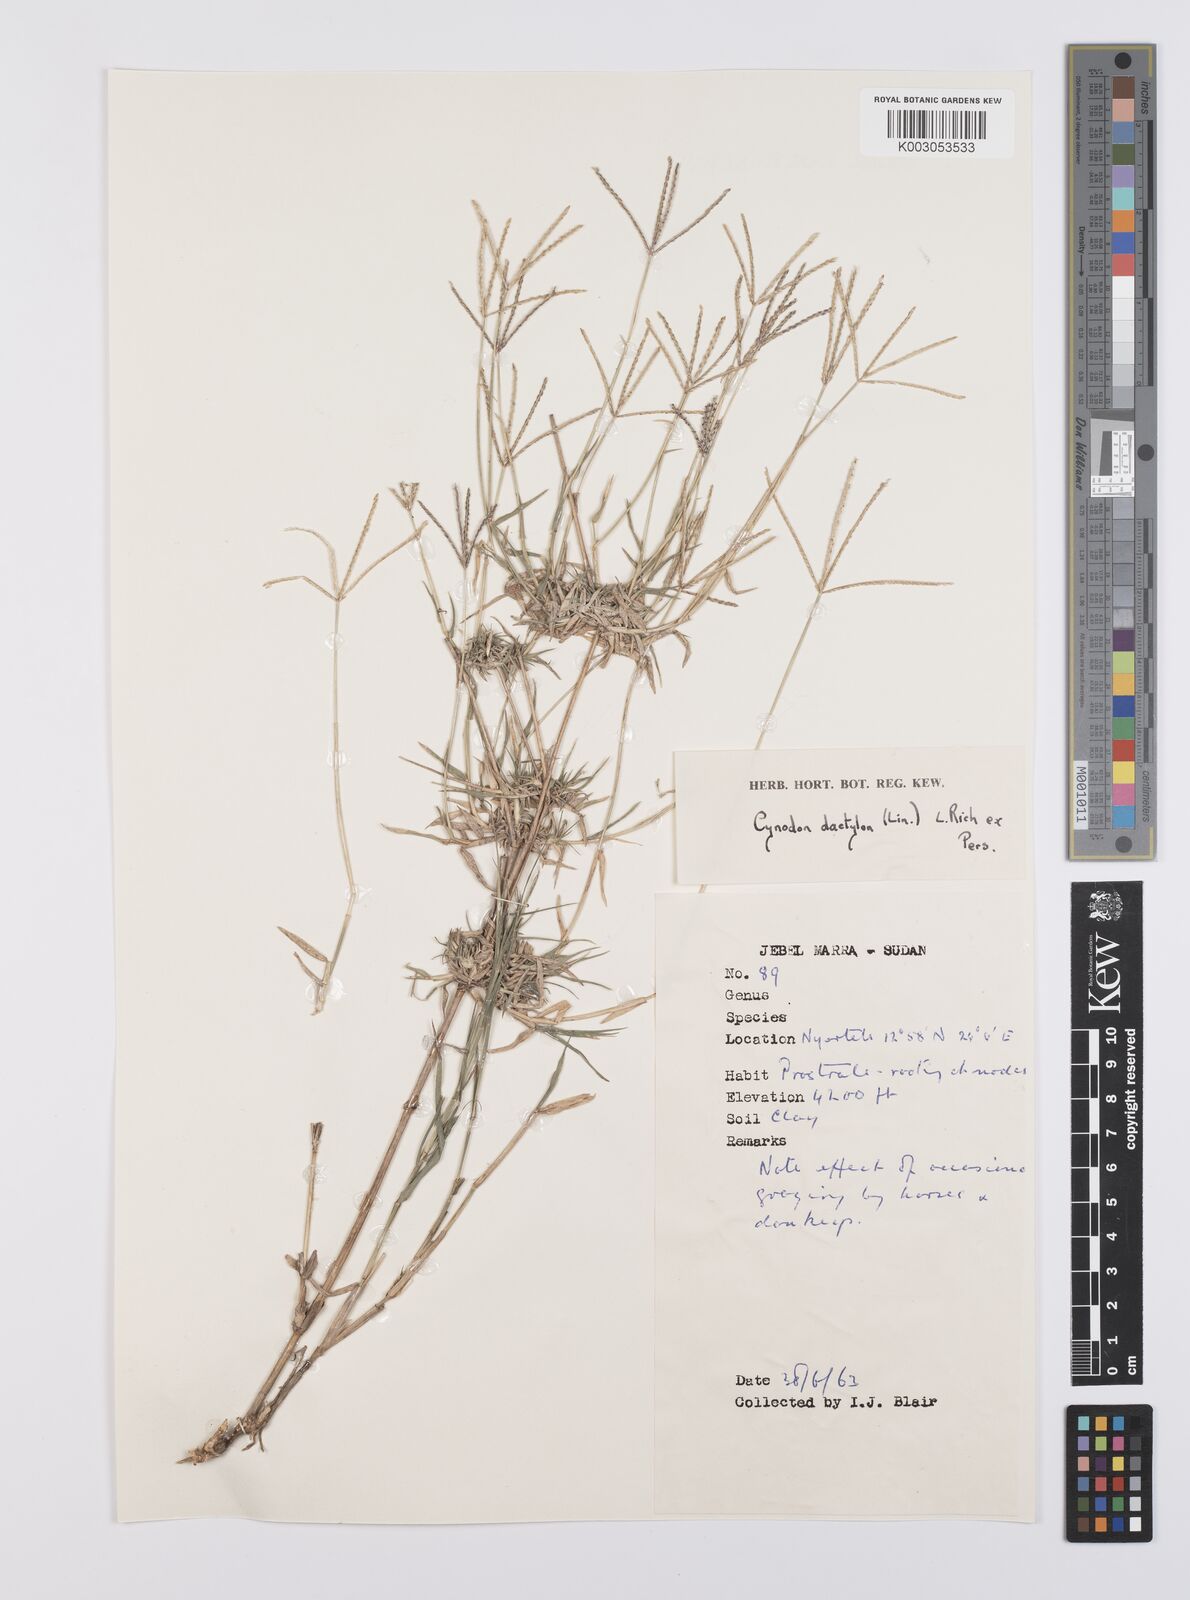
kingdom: Plantae
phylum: Tracheophyta
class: Liliopsida
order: Poales
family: Poaceae
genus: Cynodon
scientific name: Cynodon dactylon
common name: Bermuda grass
